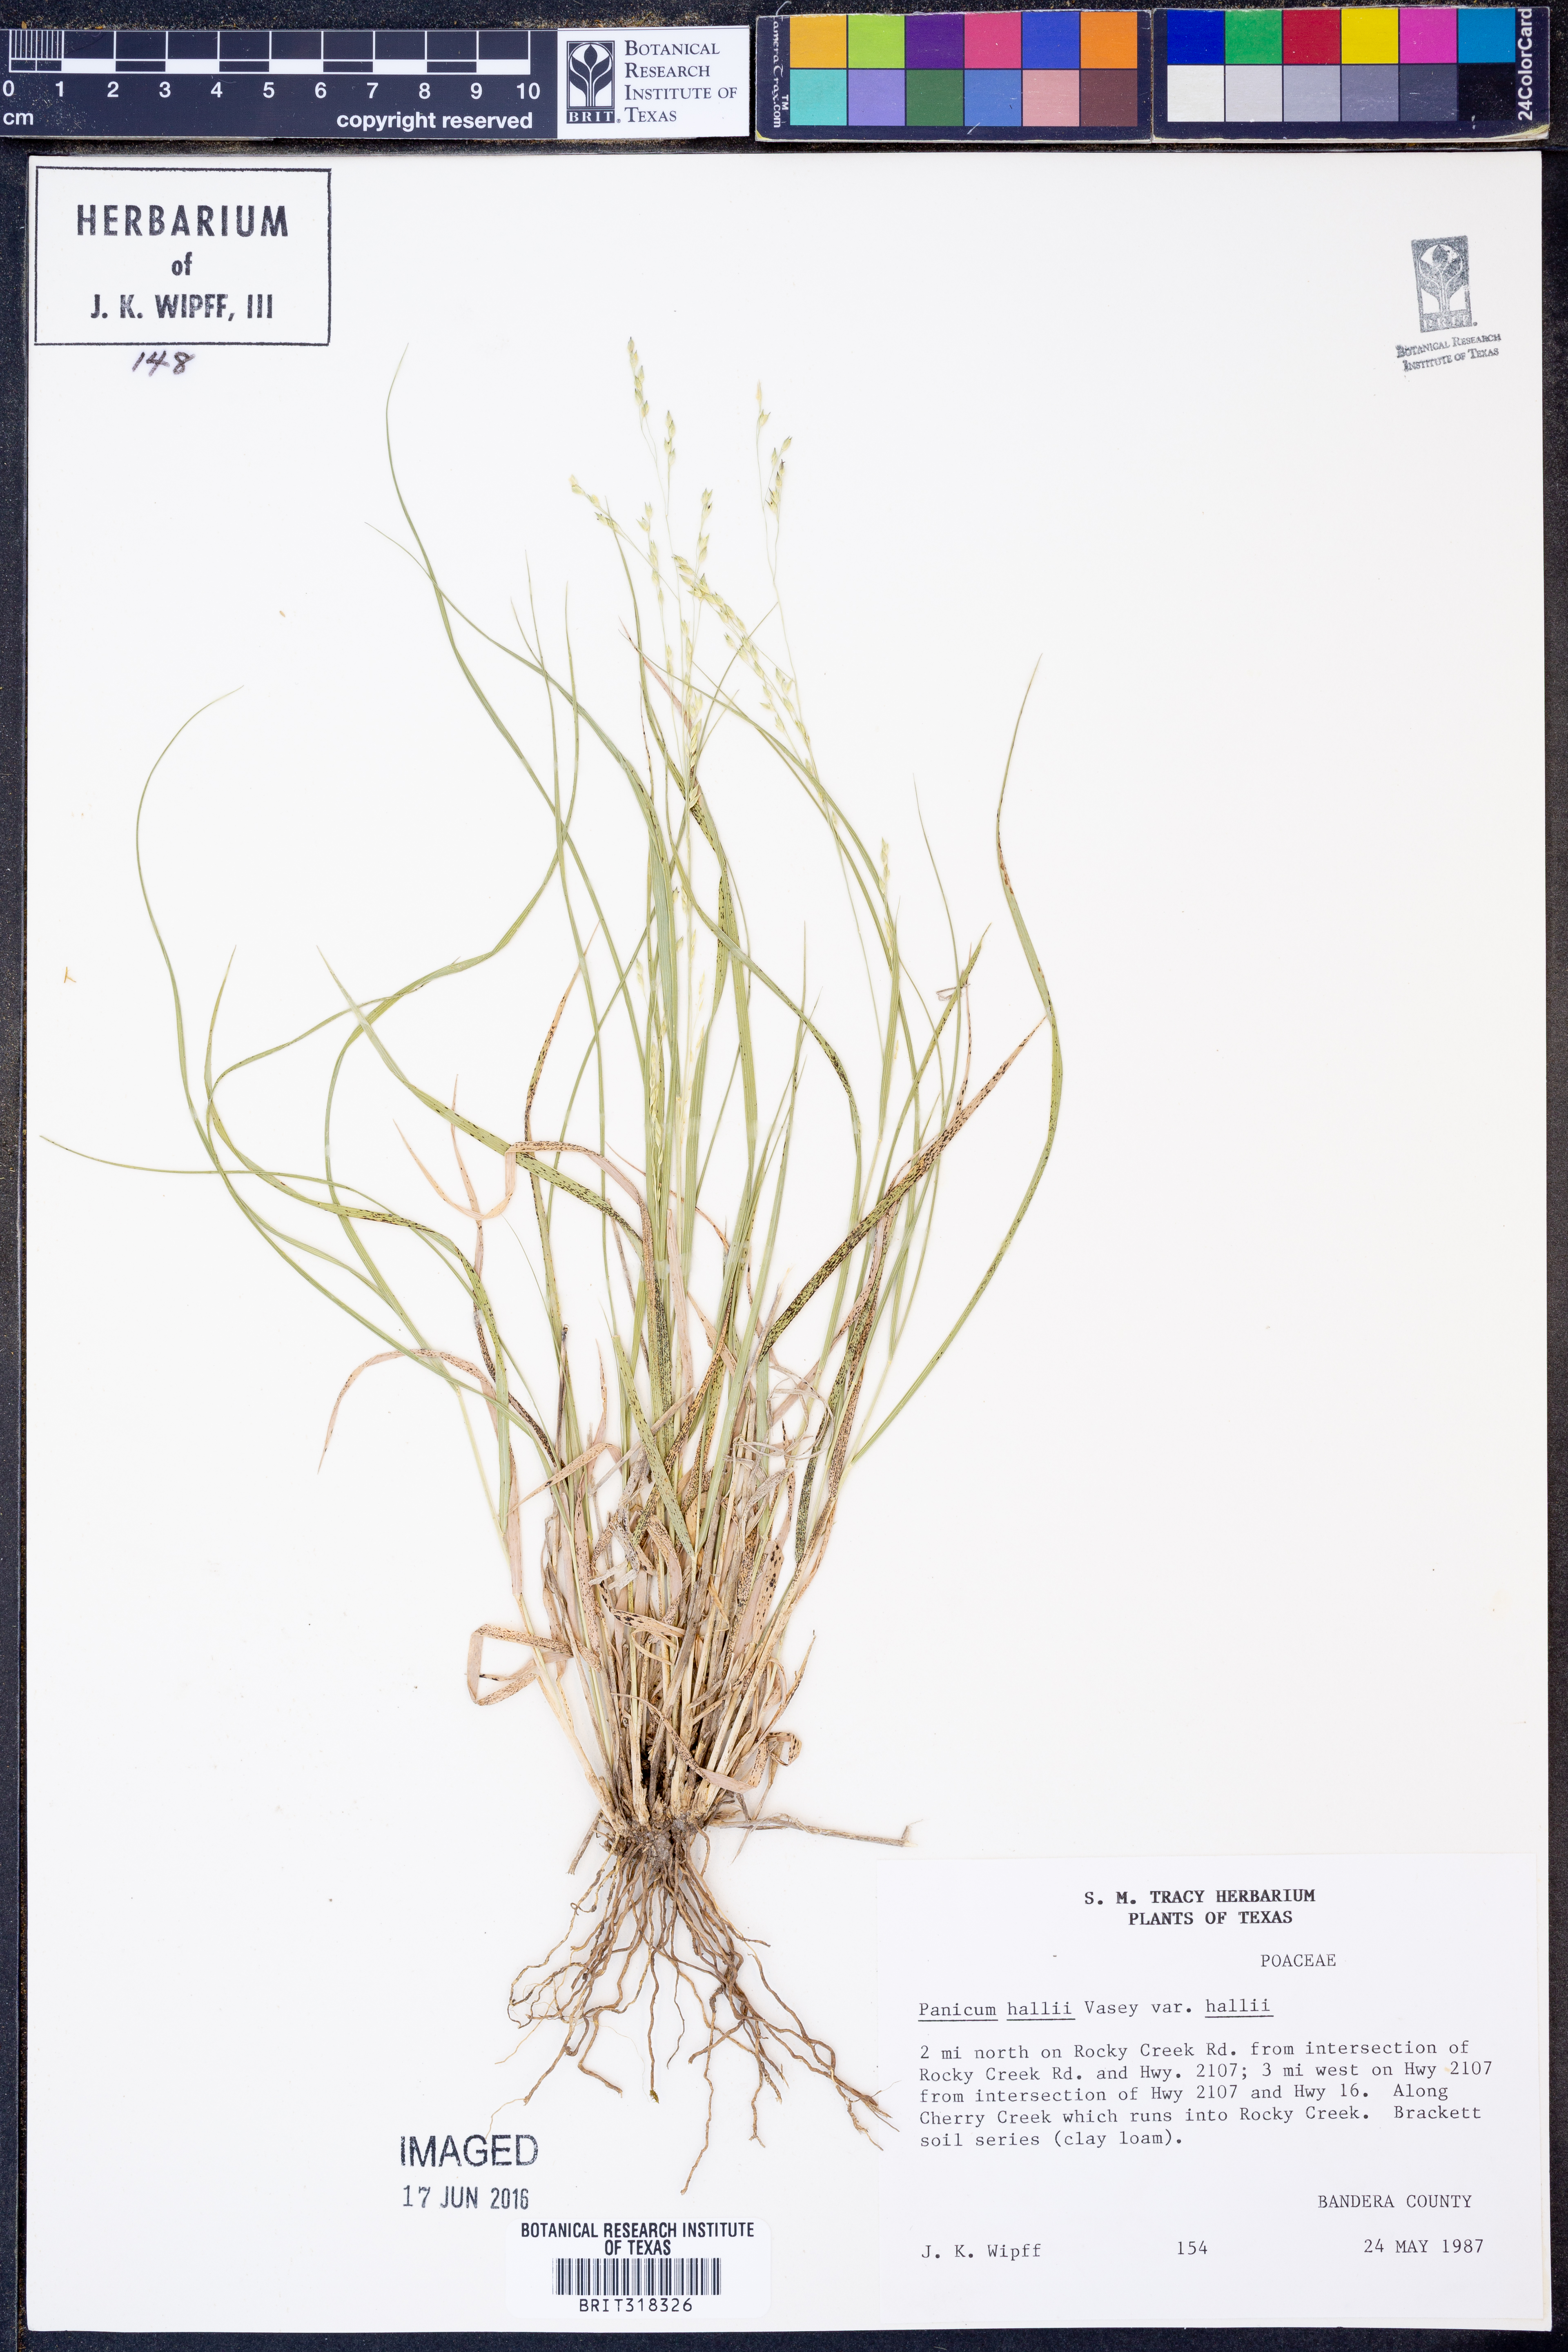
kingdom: Plantae
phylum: Tracheophyta
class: Liliopsida
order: Poales
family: Poaceae
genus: Panicum
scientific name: Panicum hallii
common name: Hall's witchgrass
